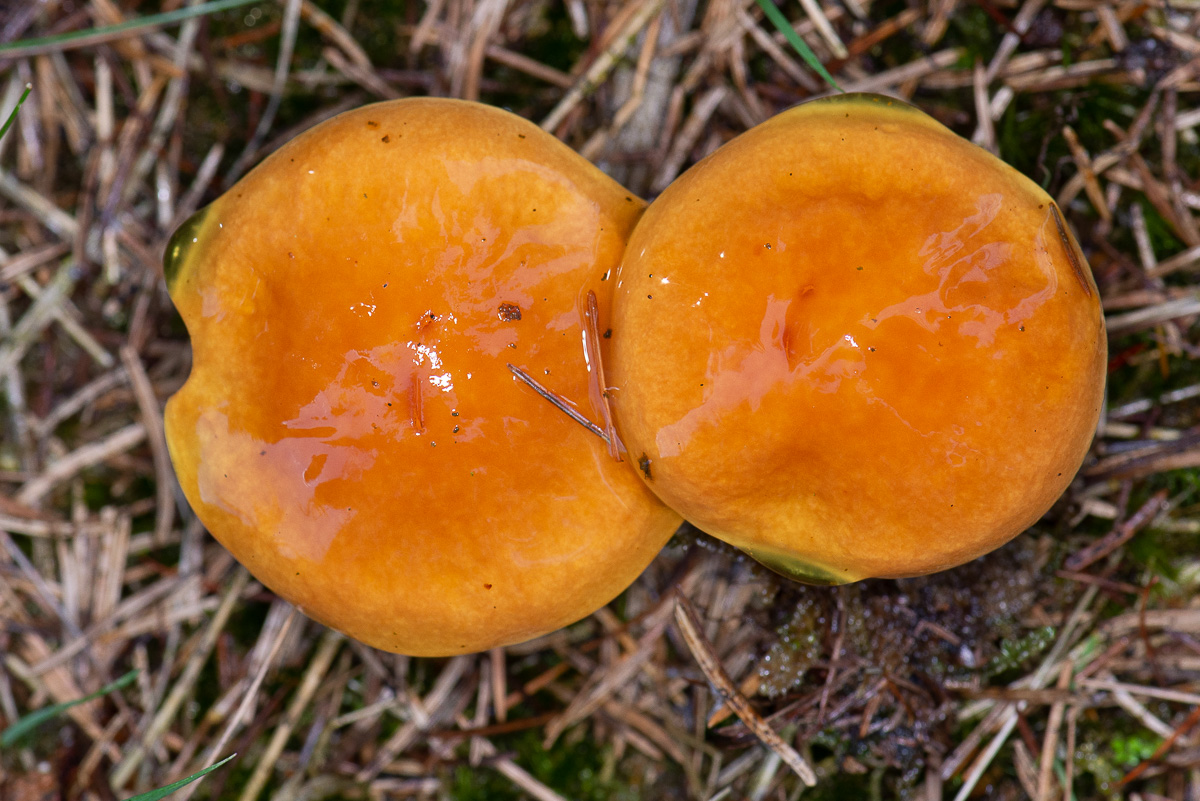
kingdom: Fungi
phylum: Basidiomycota
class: Agaricomycetes
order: Boletales
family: Suillaceae
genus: Suillus
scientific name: Suillus grevillei
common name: lærke-slimrørhat
